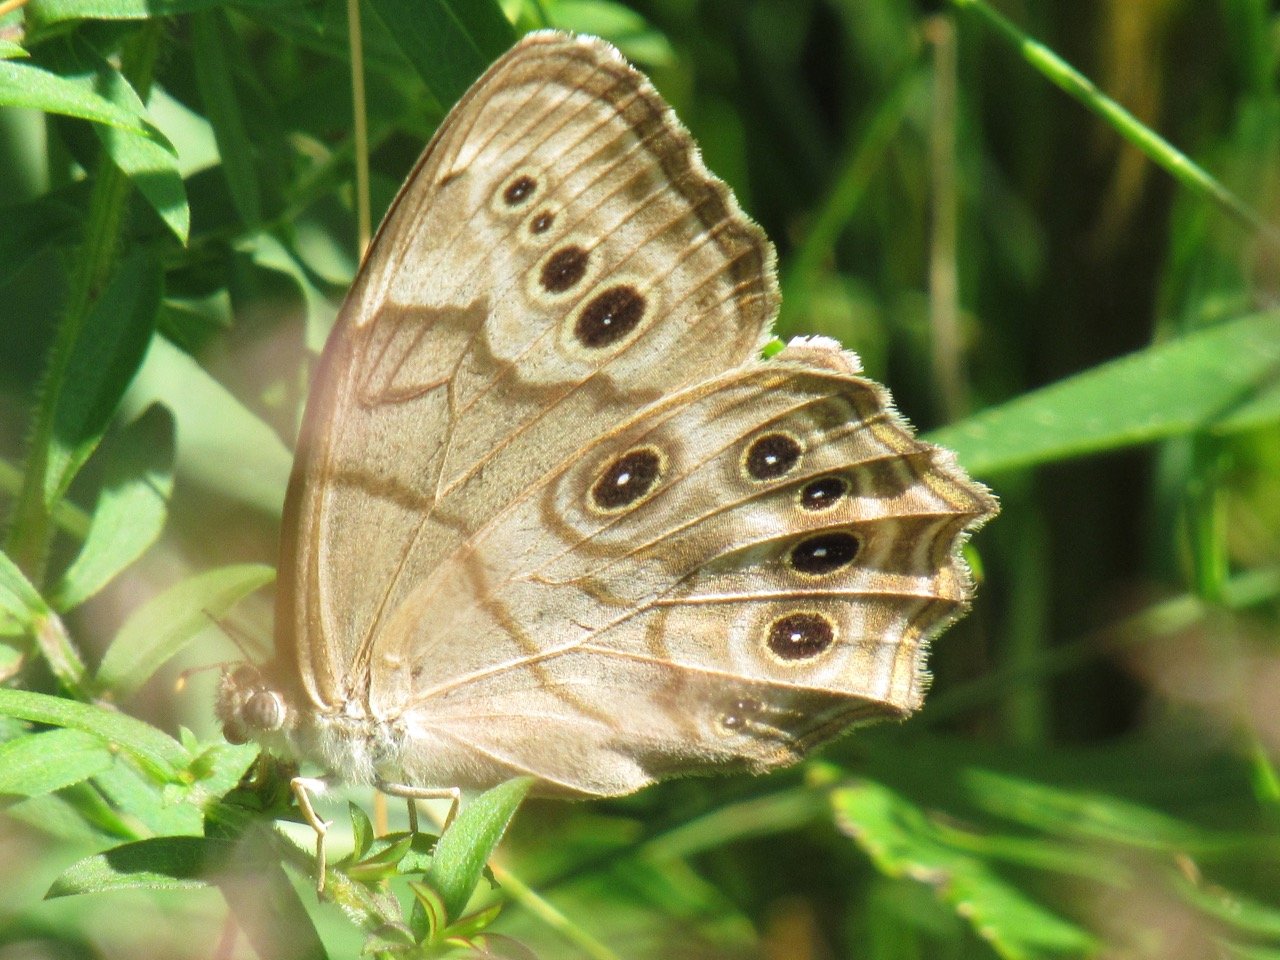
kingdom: Animalia
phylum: Arthropoda
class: Insecta
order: Lepidoptera
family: Nymphalidae
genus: Lethe
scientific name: Lethe anthedon
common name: Northern Pearly-Eye
